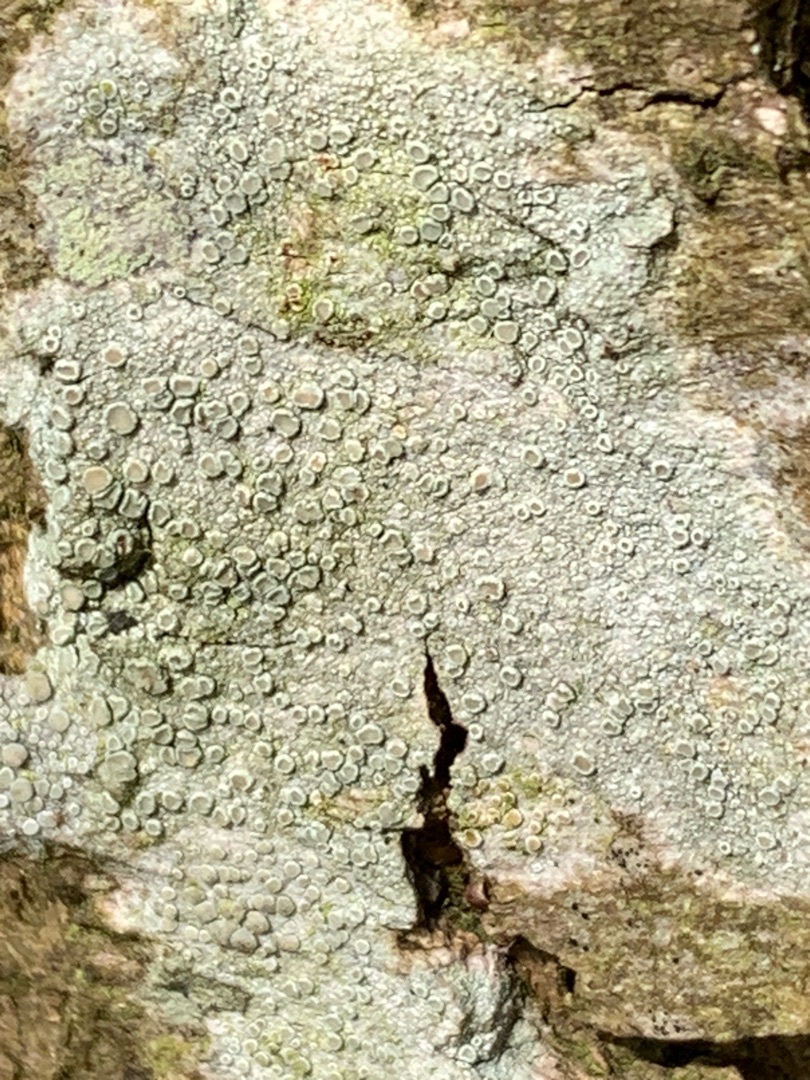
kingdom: Fungi
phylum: Ascomycota
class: Lecanoromycetes
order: Lecanorales
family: Lecanoraceae
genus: Lecanora
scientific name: Lecanora chlarotera
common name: Brun kantskivelav
